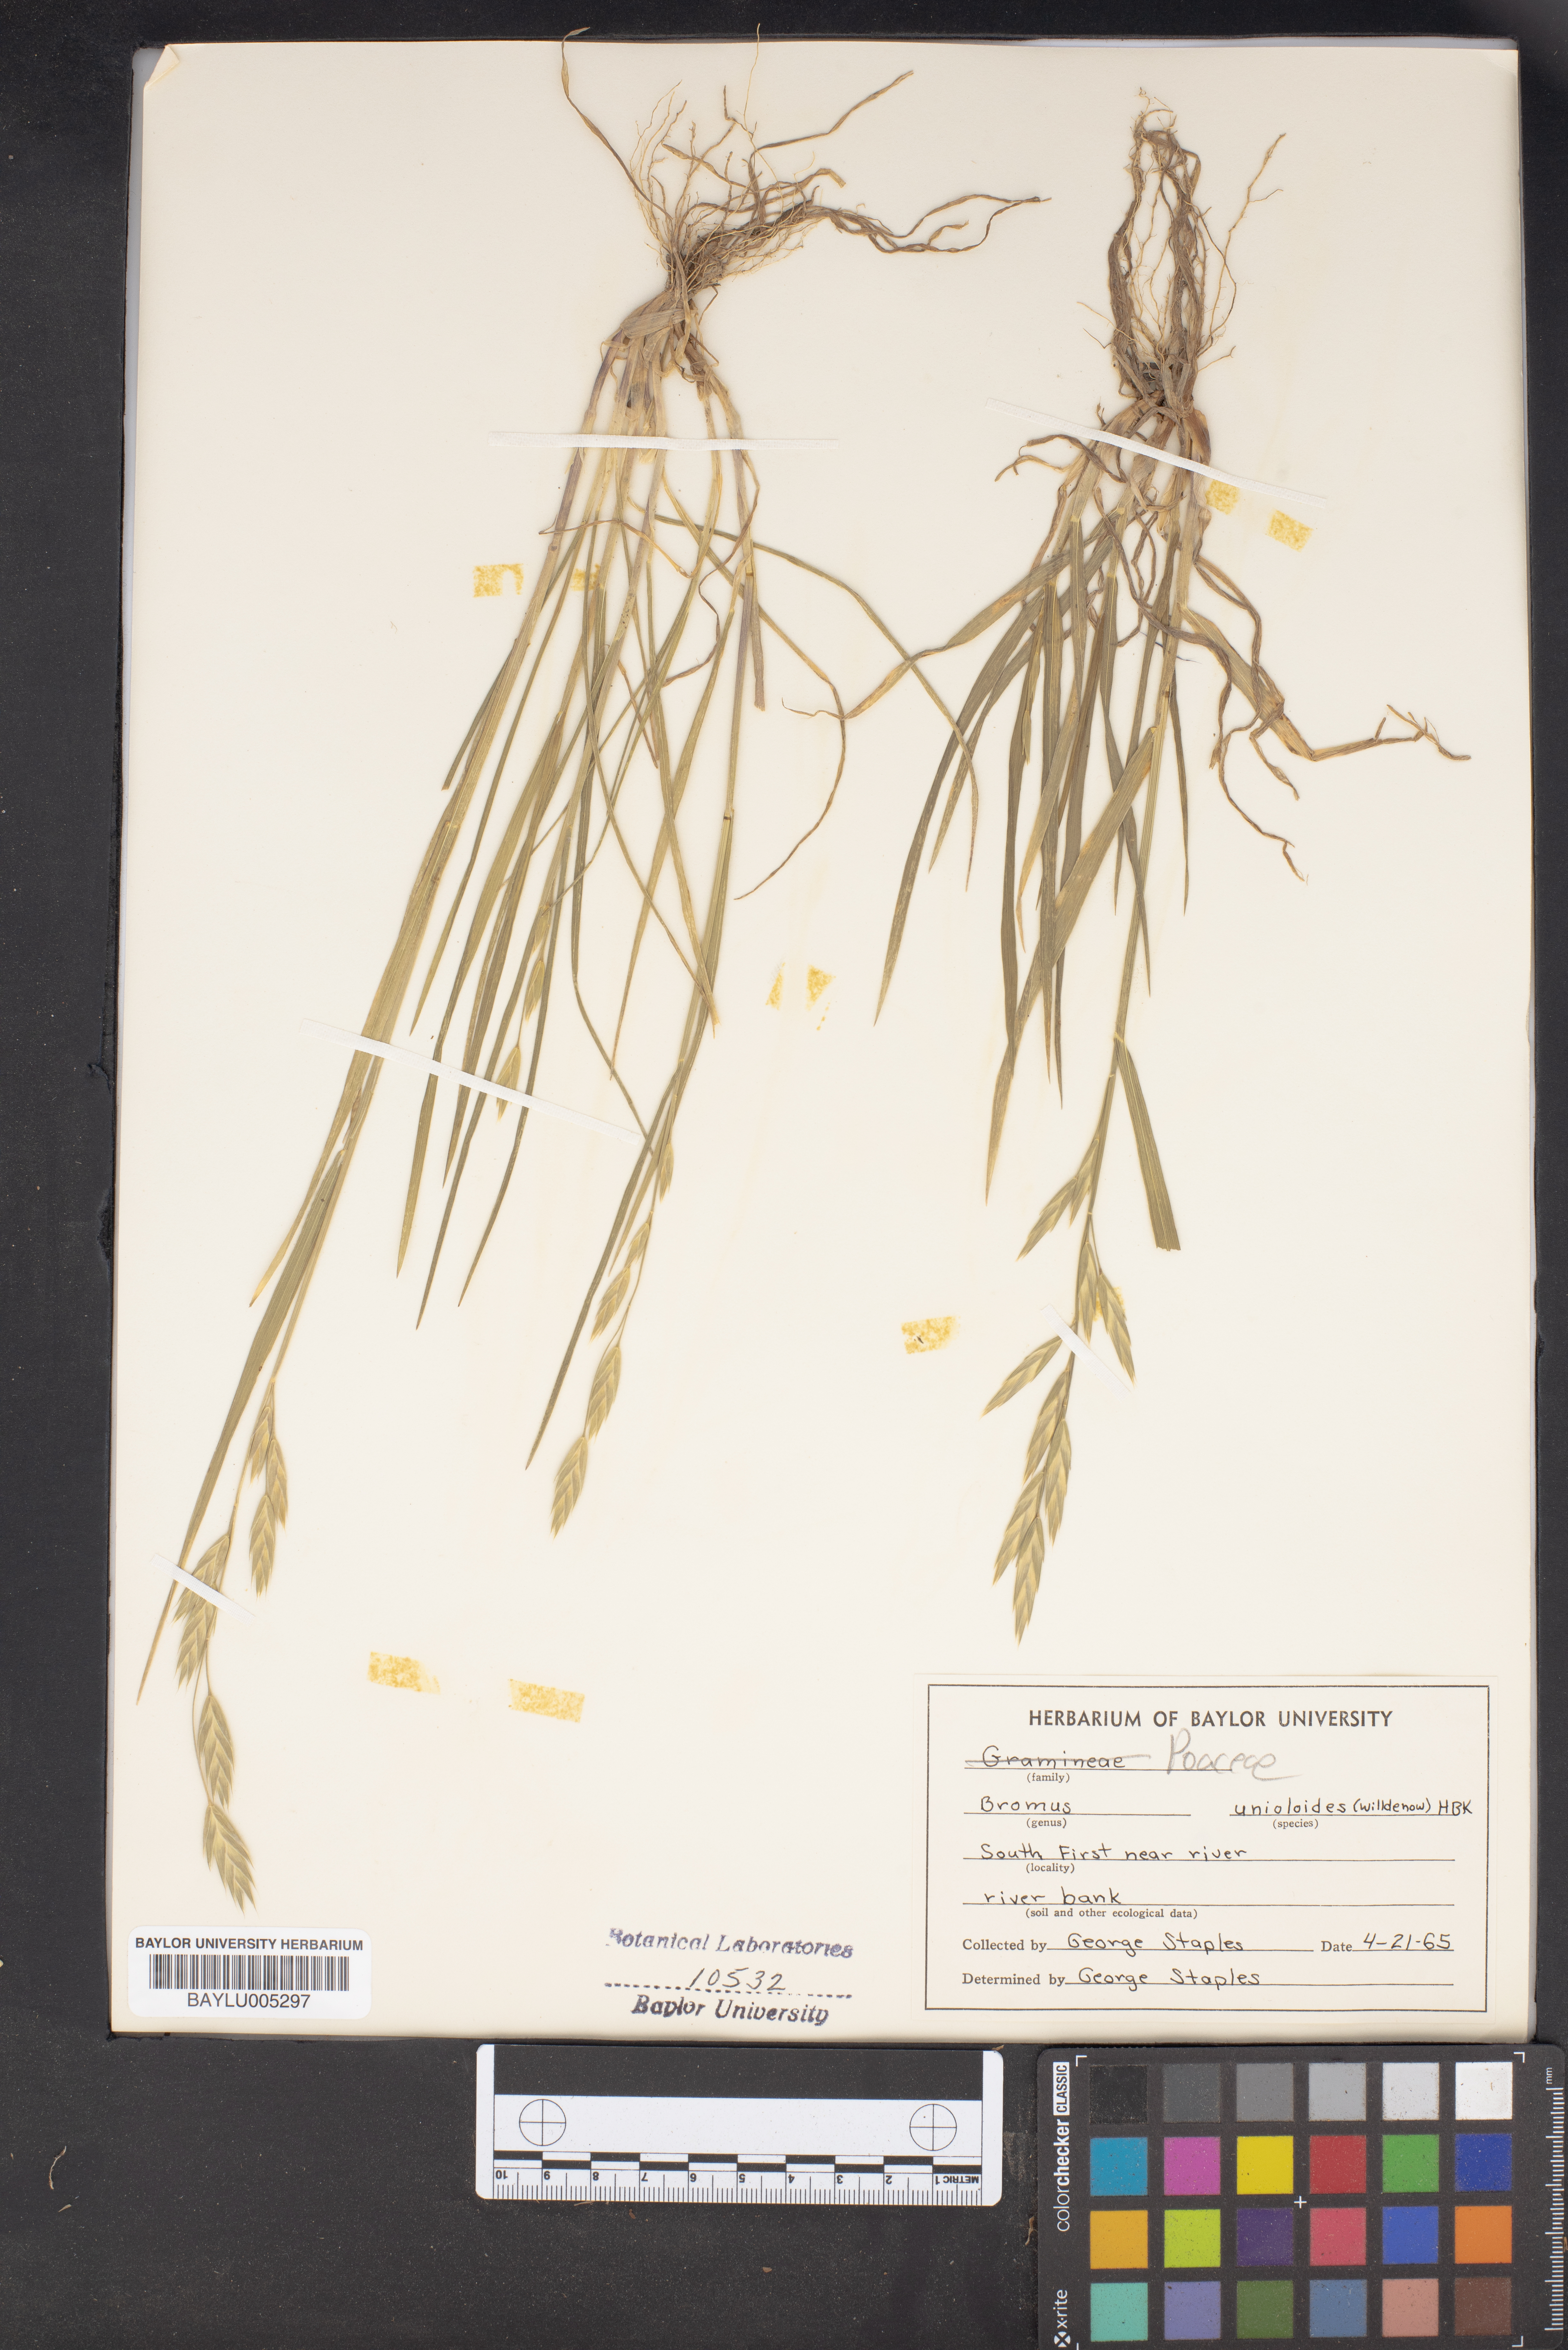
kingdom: Plantae
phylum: Tracheophyta
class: Liliopsida
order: Poales
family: Poaceae
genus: Bromus
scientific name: Bromus catharticus
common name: Rescuegrass
